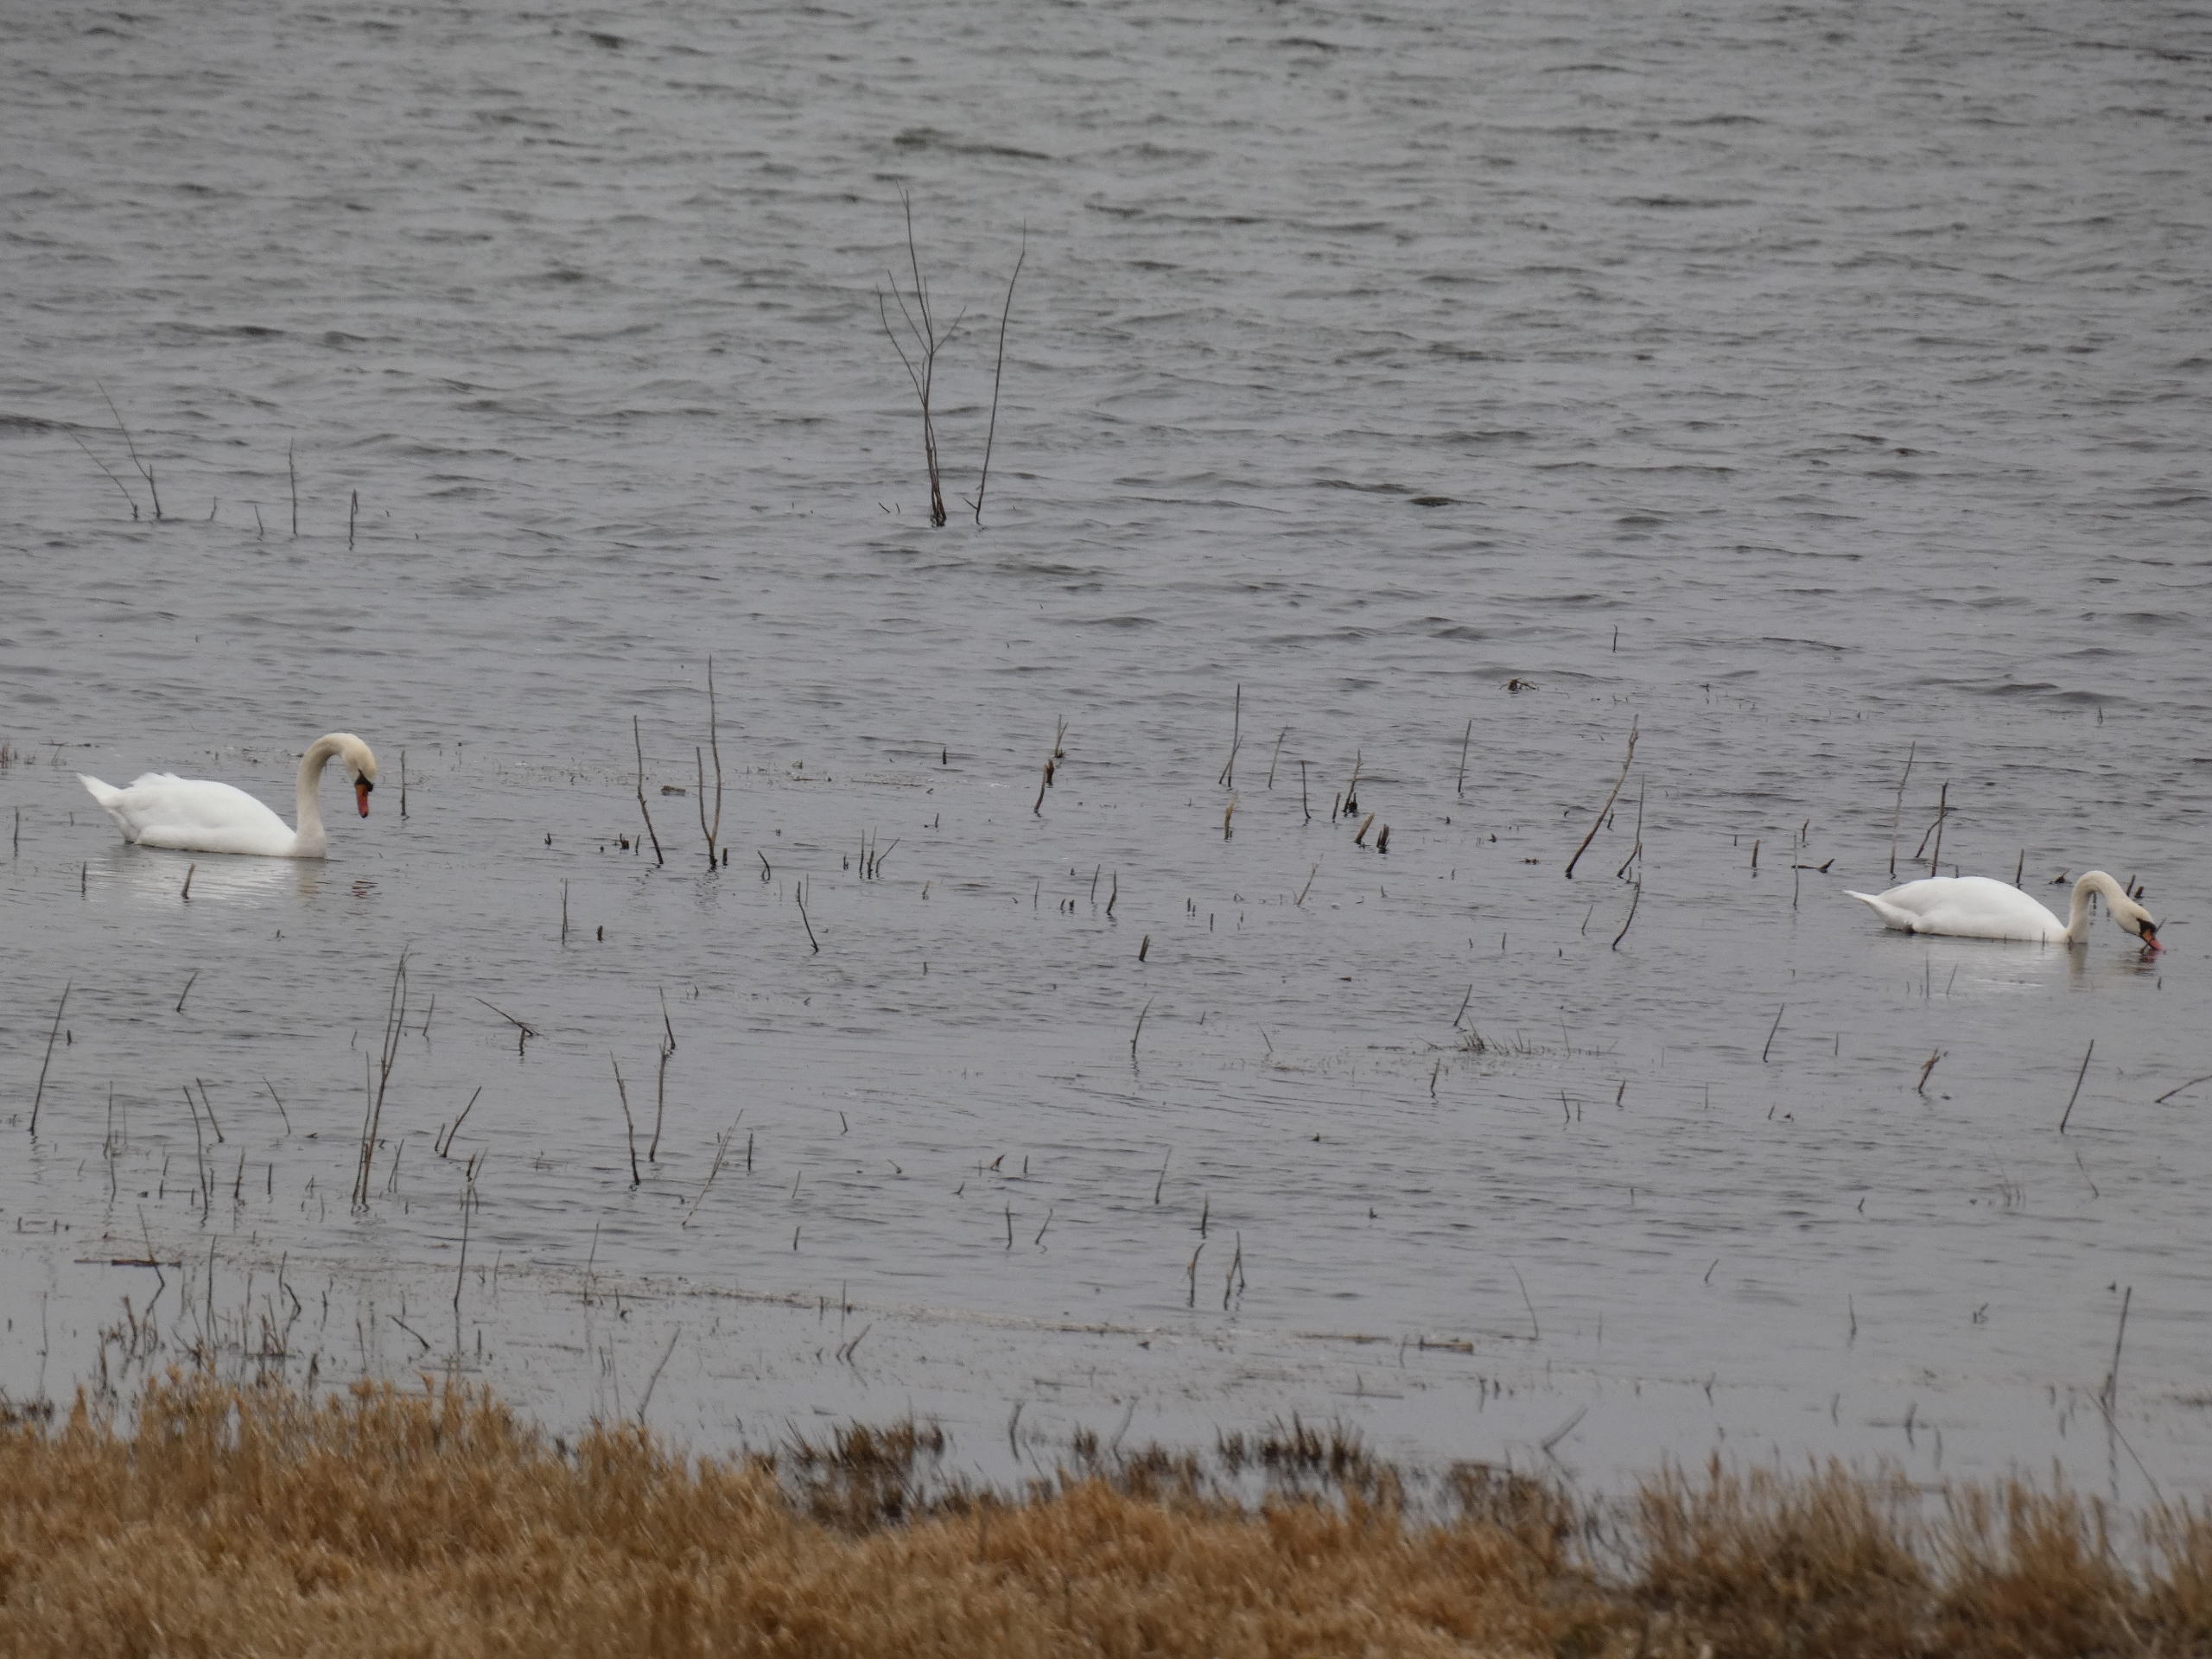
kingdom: Animalia
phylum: Chordata
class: Aves
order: Anseriformes
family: Anatidae
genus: Cygnus
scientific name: Cygnus olor
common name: Knopsvane
